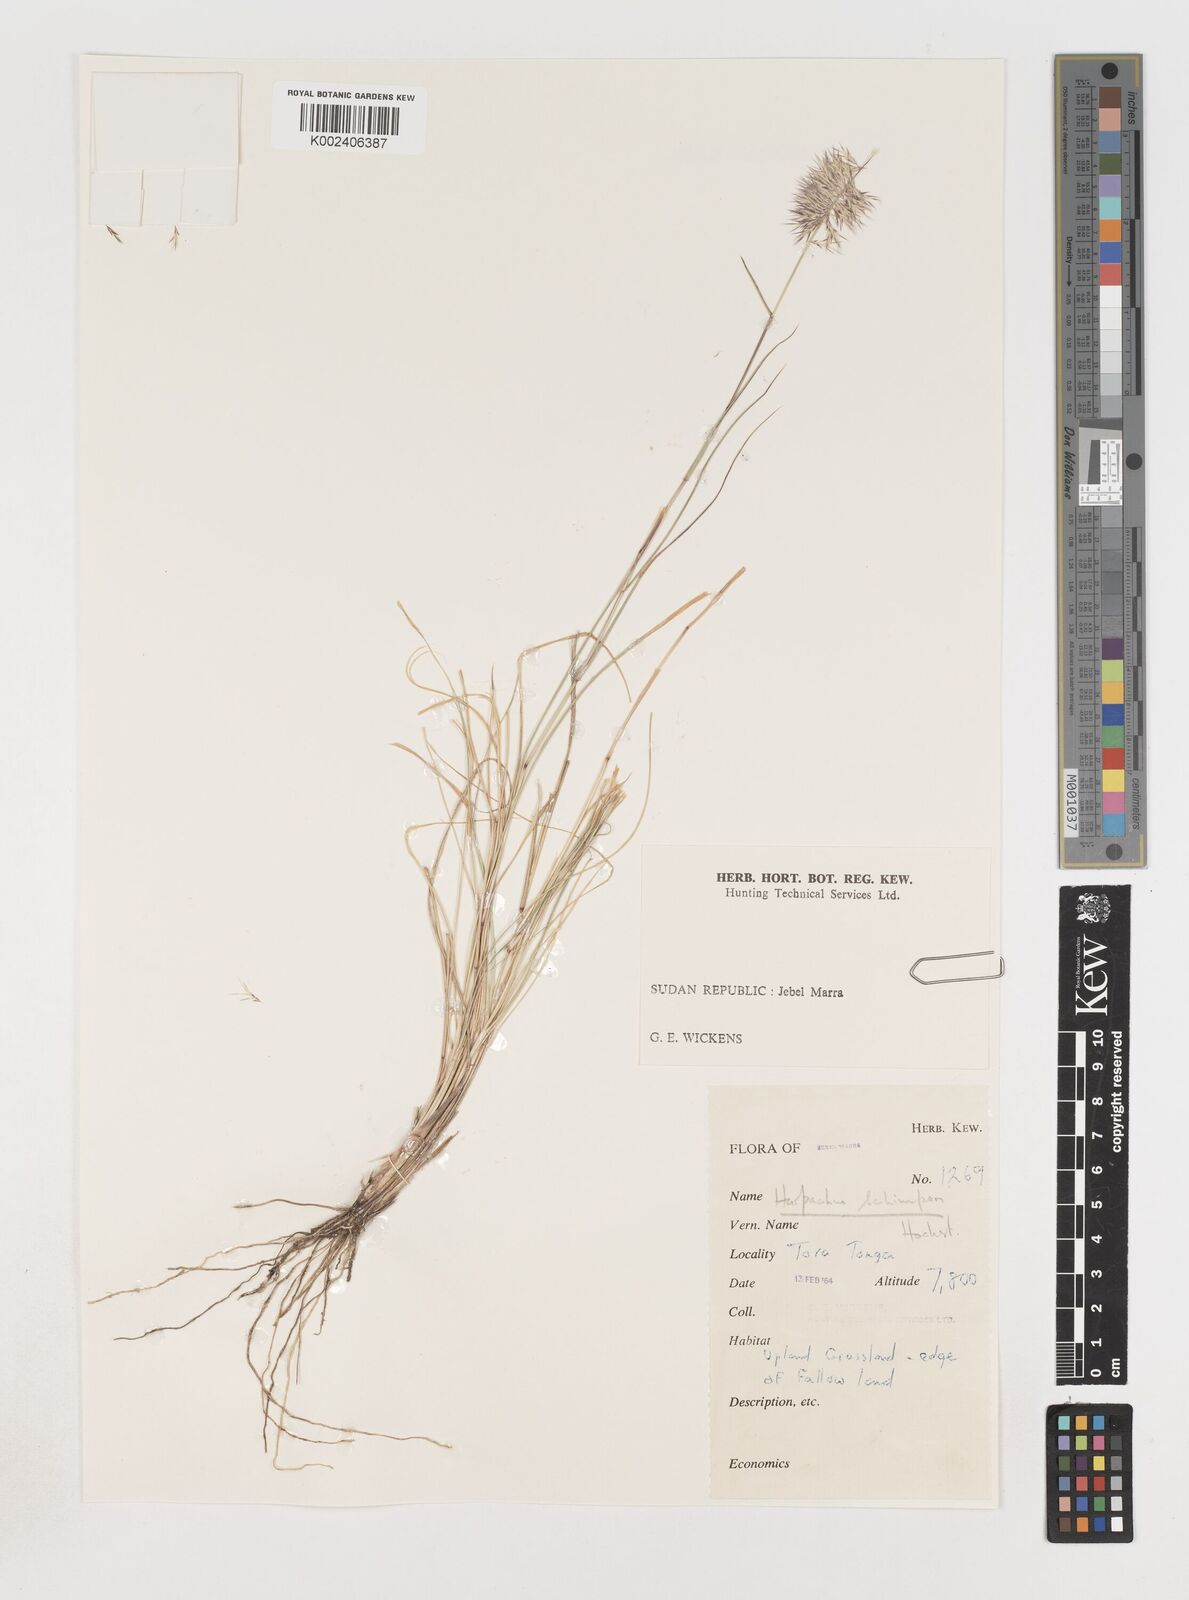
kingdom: Plantae
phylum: Tracheophyta
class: Liliopsida
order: Poales
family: Poaceae
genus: Harpachne
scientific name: Harpachne schimperi
